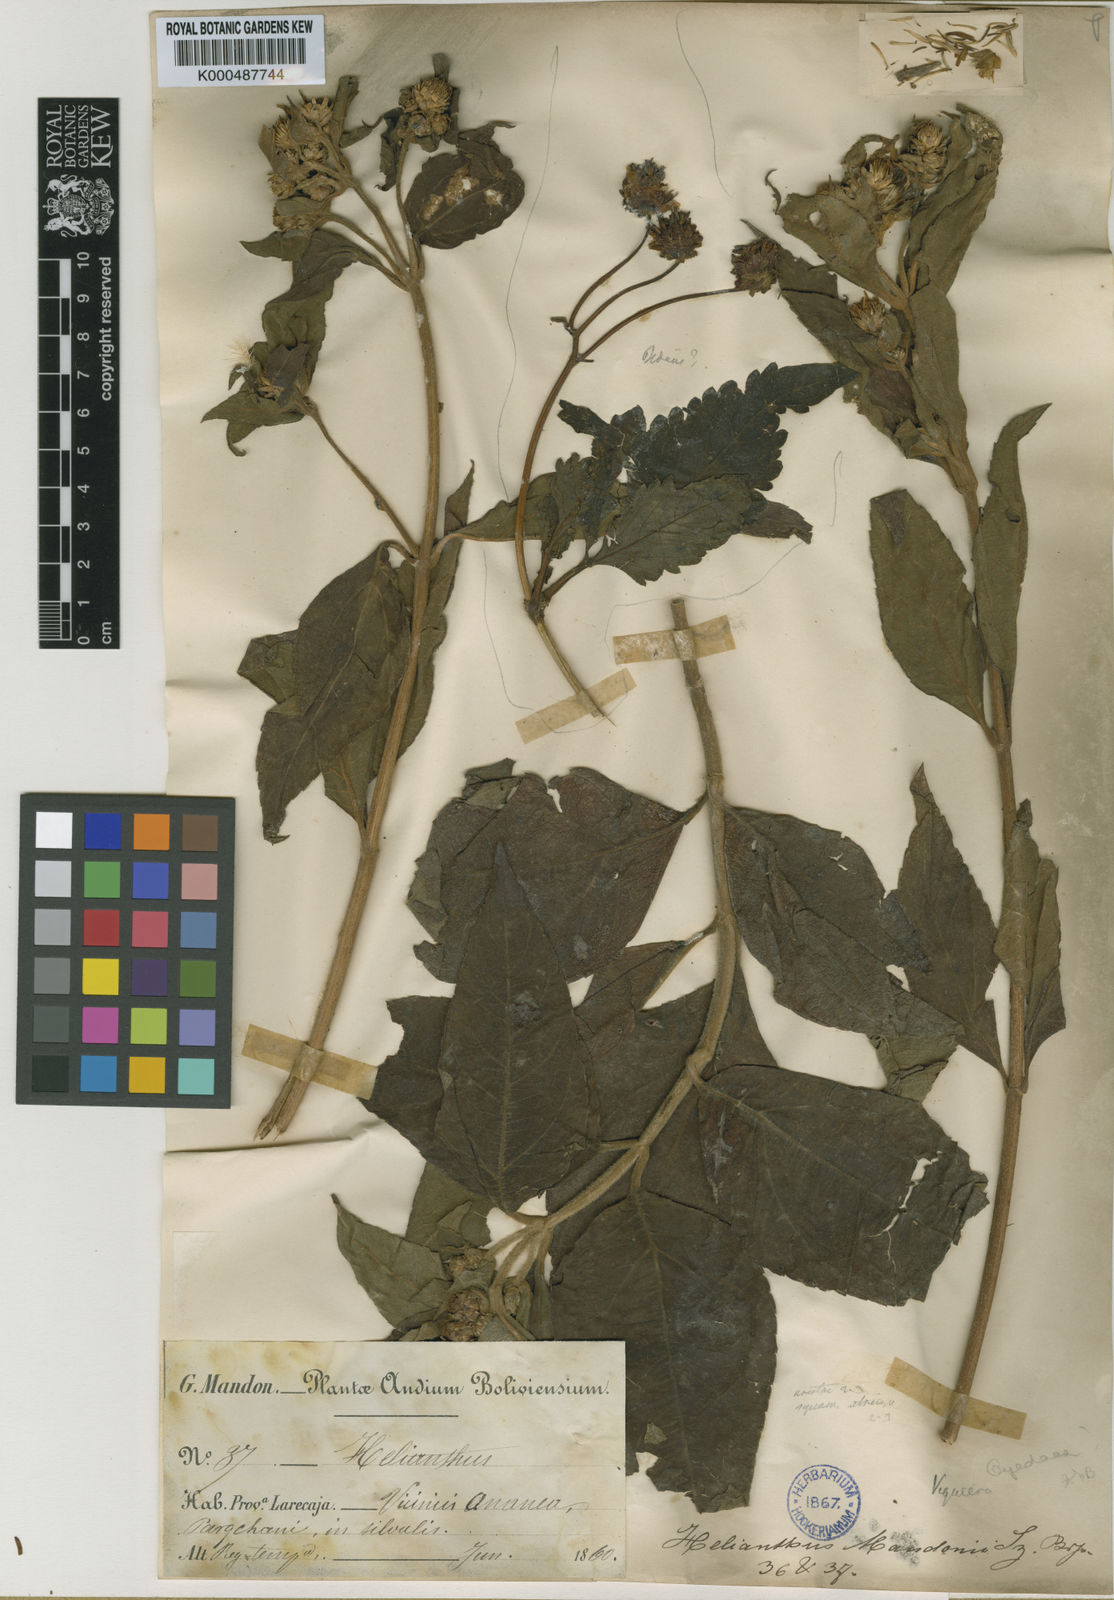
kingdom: Plantae
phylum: Tracheophyta
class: Magnoliopsida
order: Asterales
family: Asteraceae
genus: Oyedaea
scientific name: Oyedaea
